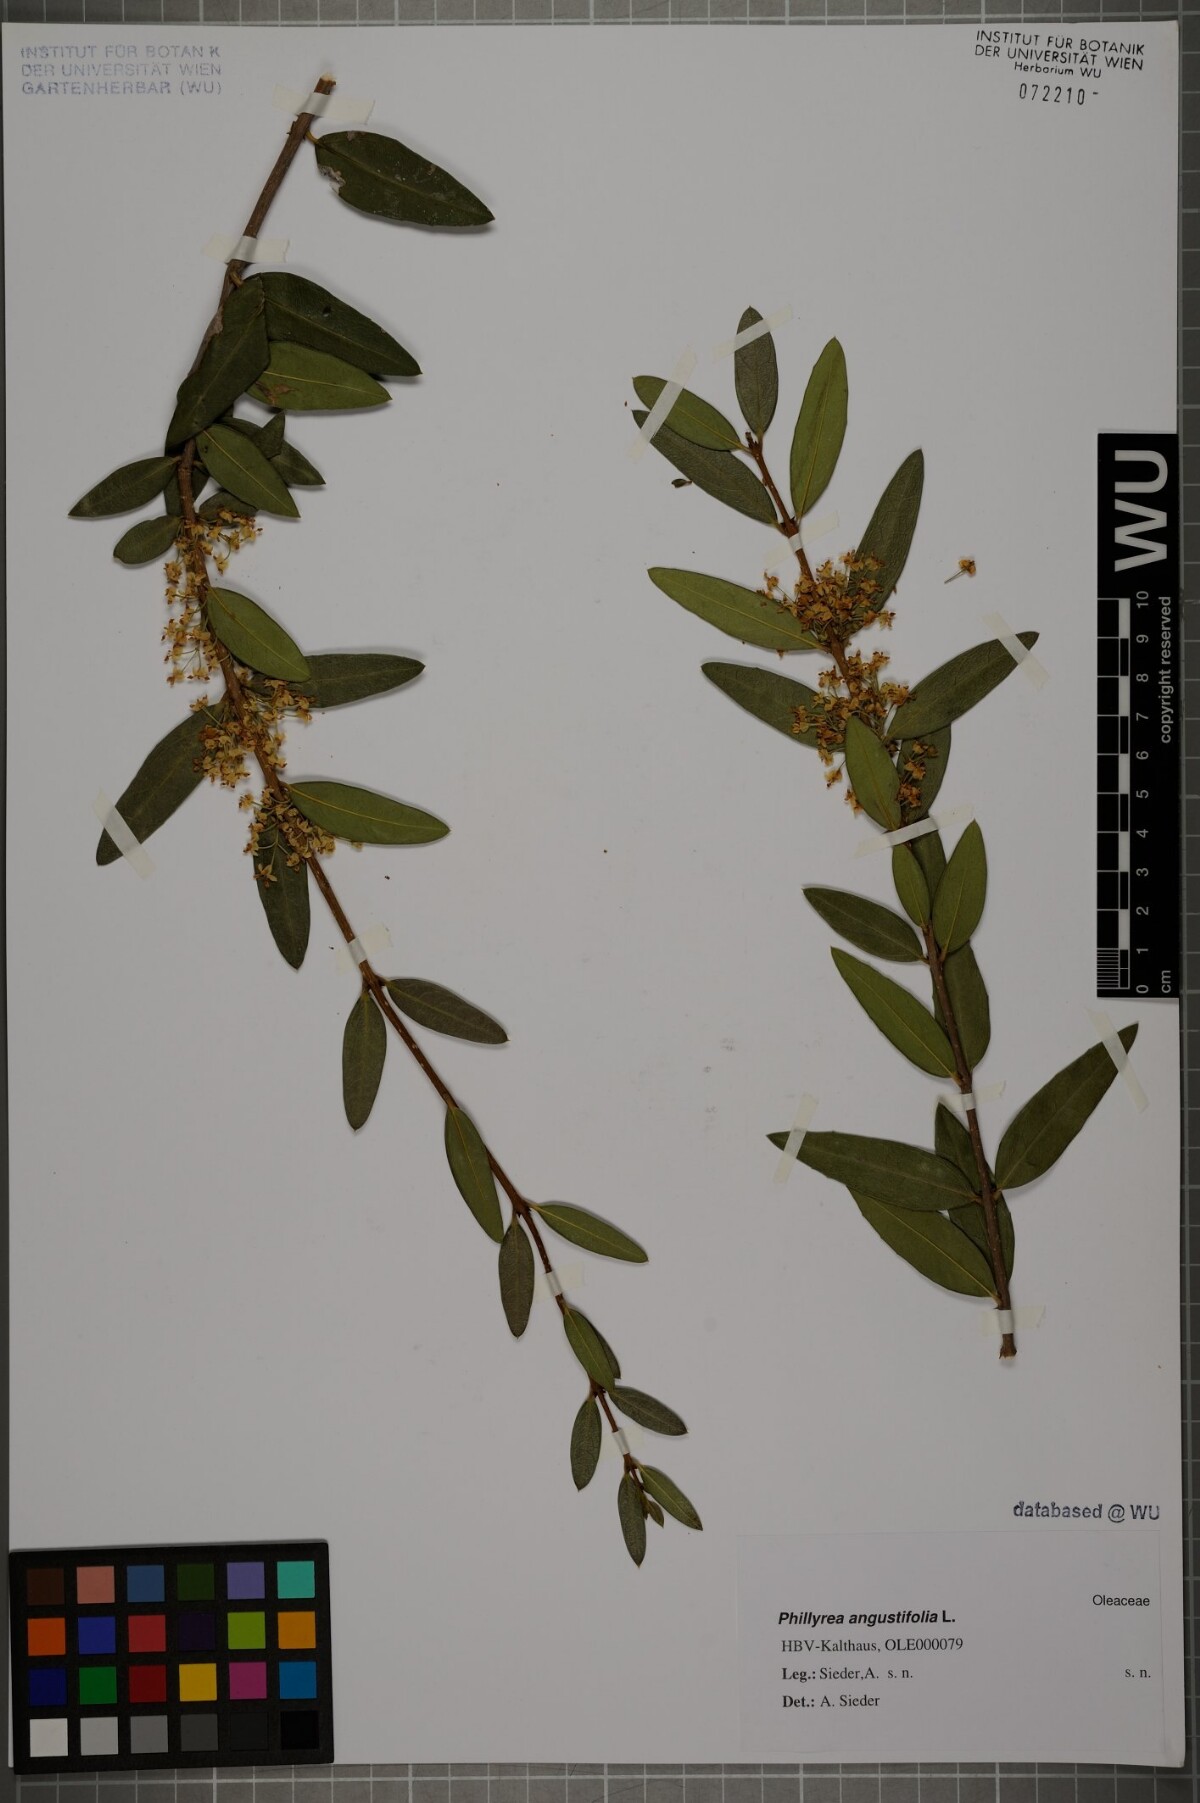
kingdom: Plantae
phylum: Tracheophyta
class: Magnoliopsida
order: Lamiales
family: Oleaceae
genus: Phillyrea
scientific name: Phillyrea angustifolia
